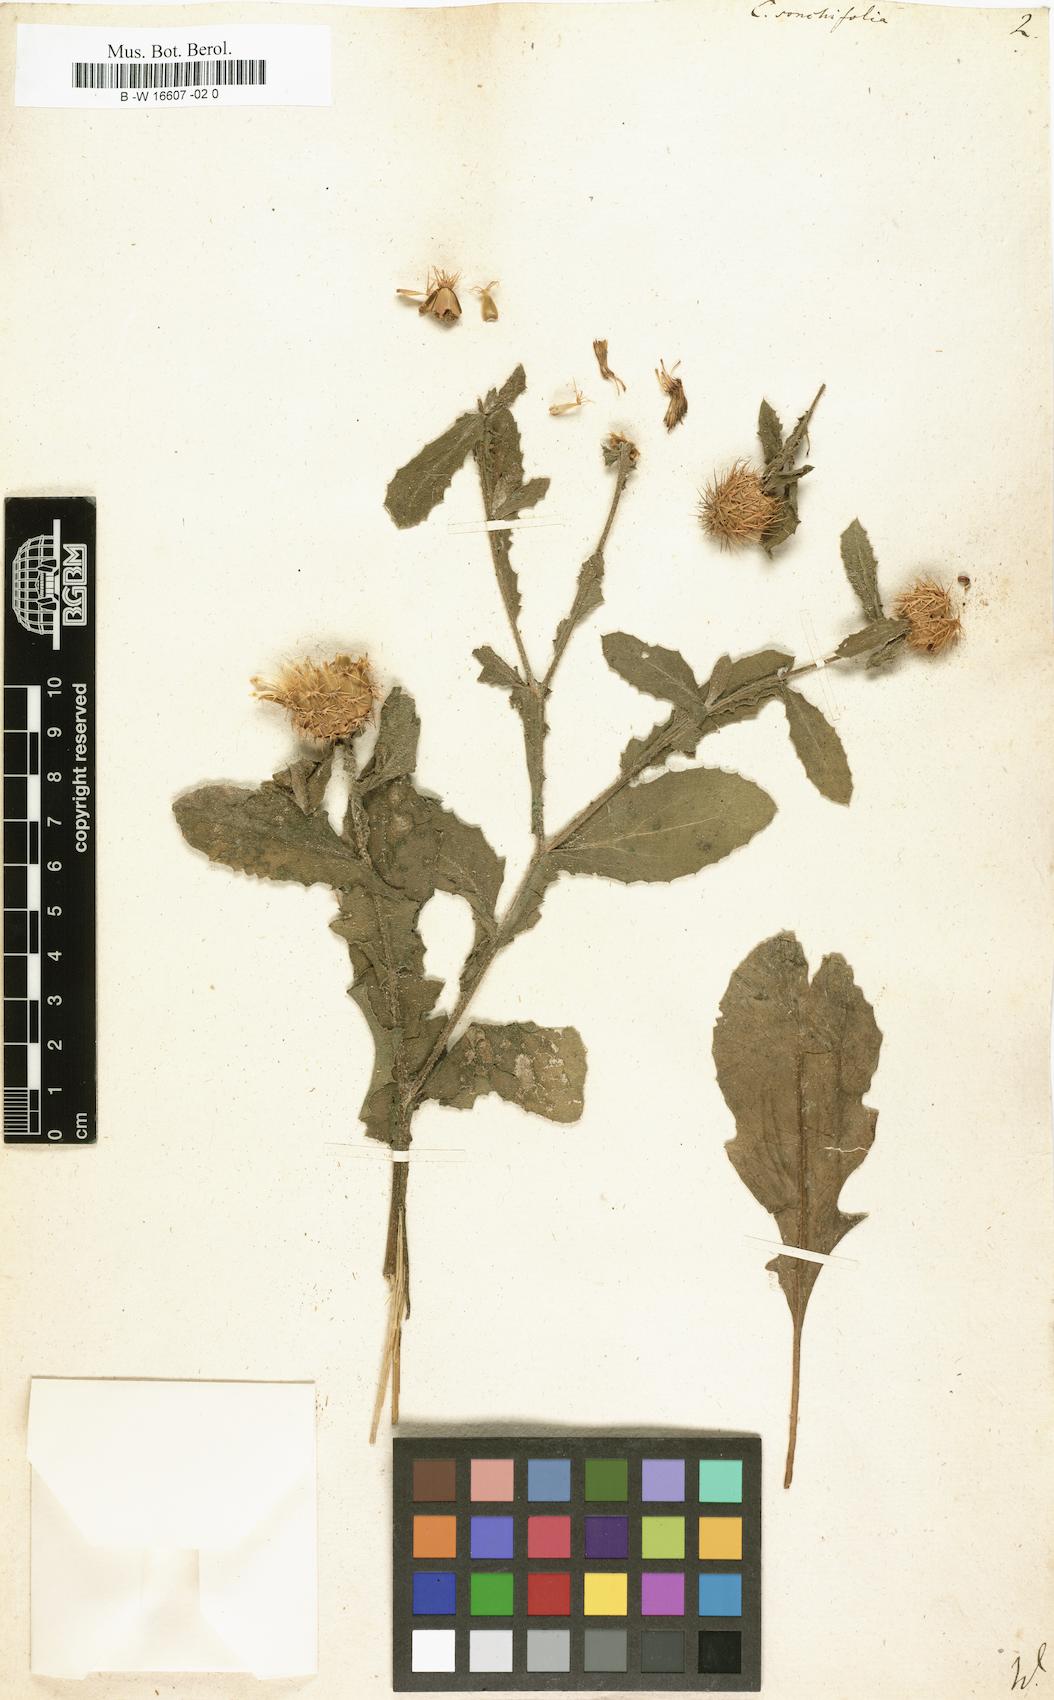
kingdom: Plantae
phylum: Tracheophyta
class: Magnoliopsida
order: Asterales
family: Asteraceae
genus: Centaurea
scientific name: Centaurea seridis
